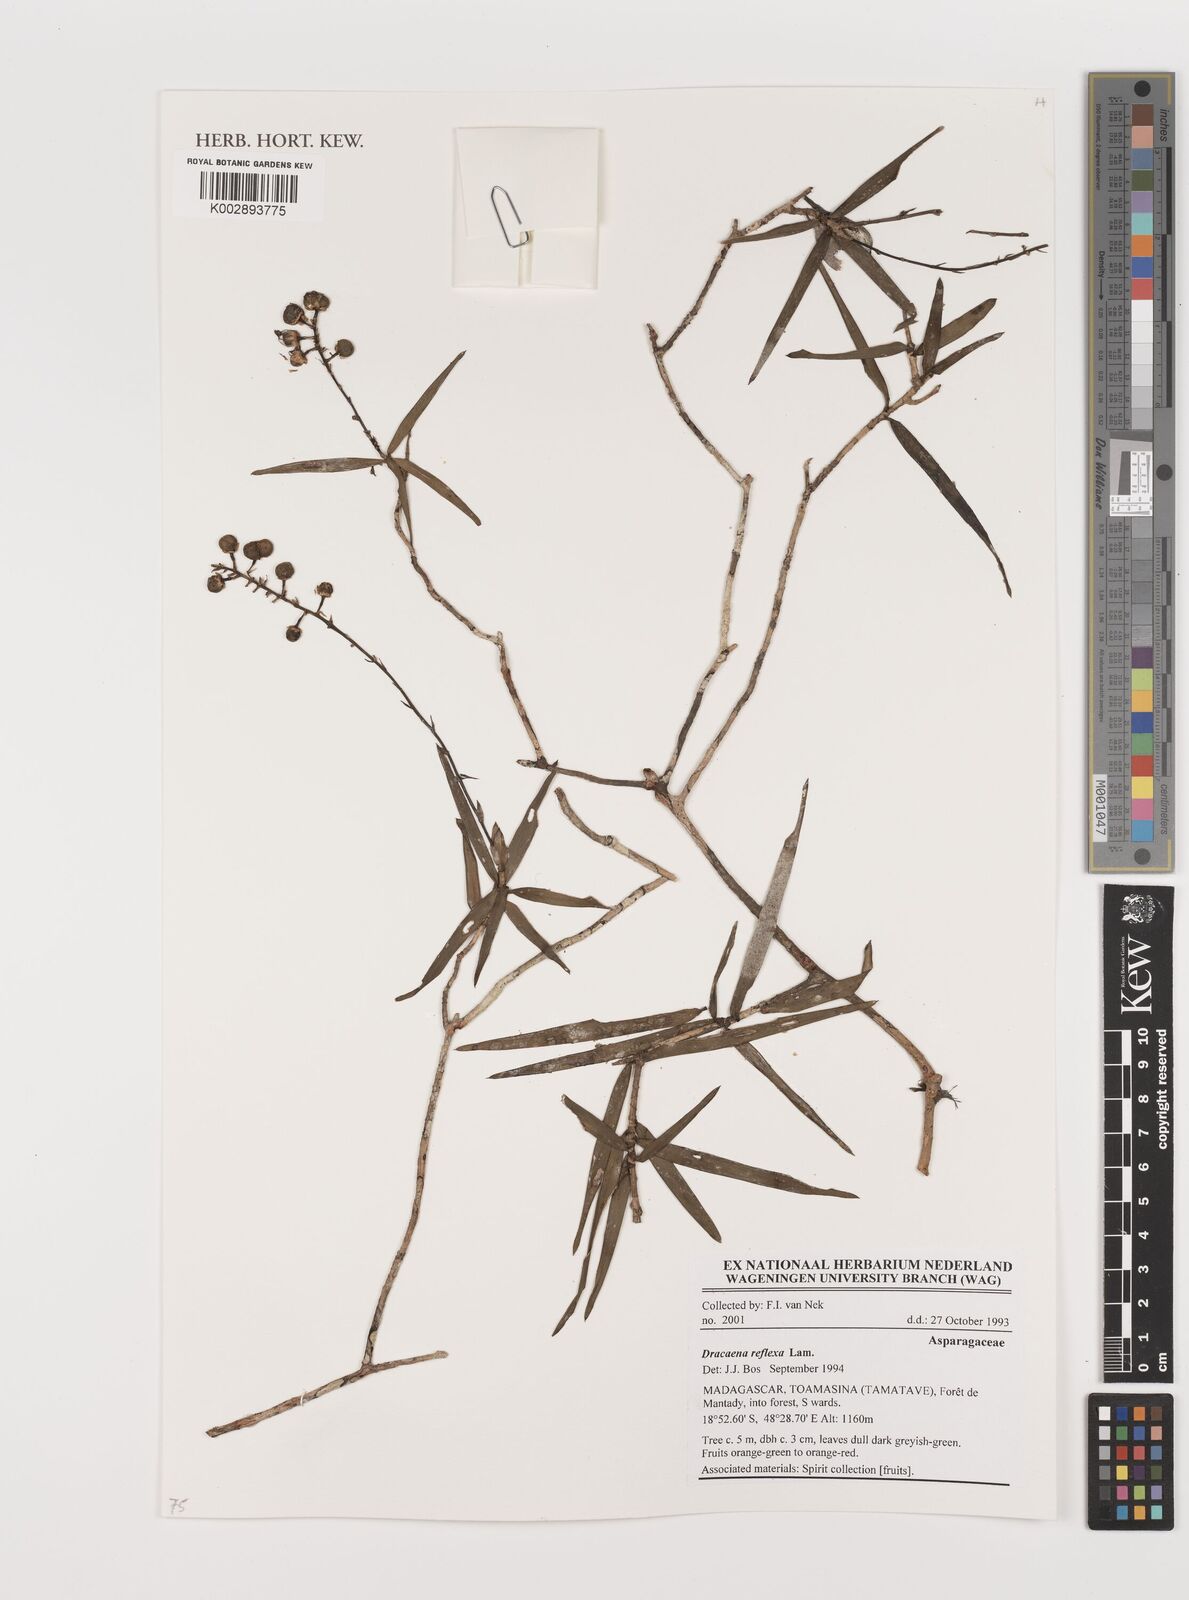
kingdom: Plantae
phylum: Tracheophyta
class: Liliopsida
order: Asparagales
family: Asparagaceae
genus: Dracaena
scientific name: Dracaena reflexa
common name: Song-of-india
